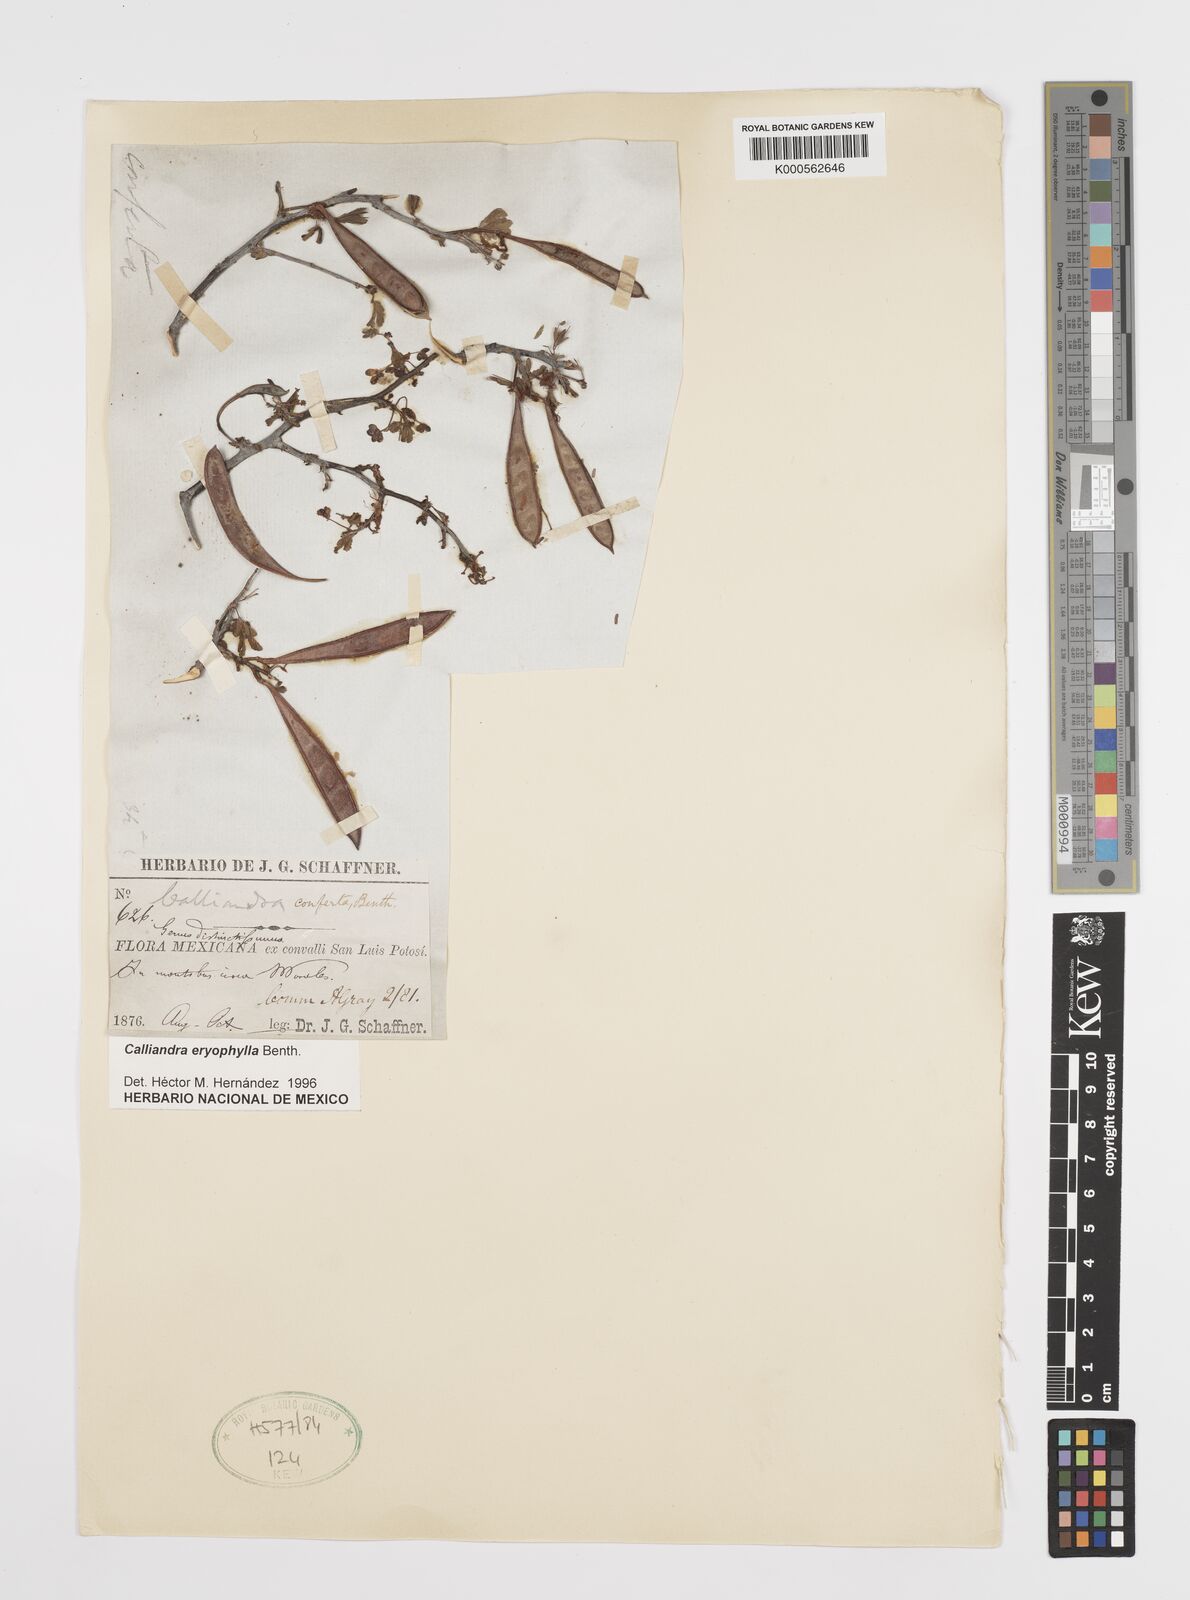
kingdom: Plantae
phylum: Tracheophyta
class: Magnoliopsida
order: Fabales
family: Fabaceae
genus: Calliandra
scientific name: Calliandra eriophylla
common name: Fairy-duster
